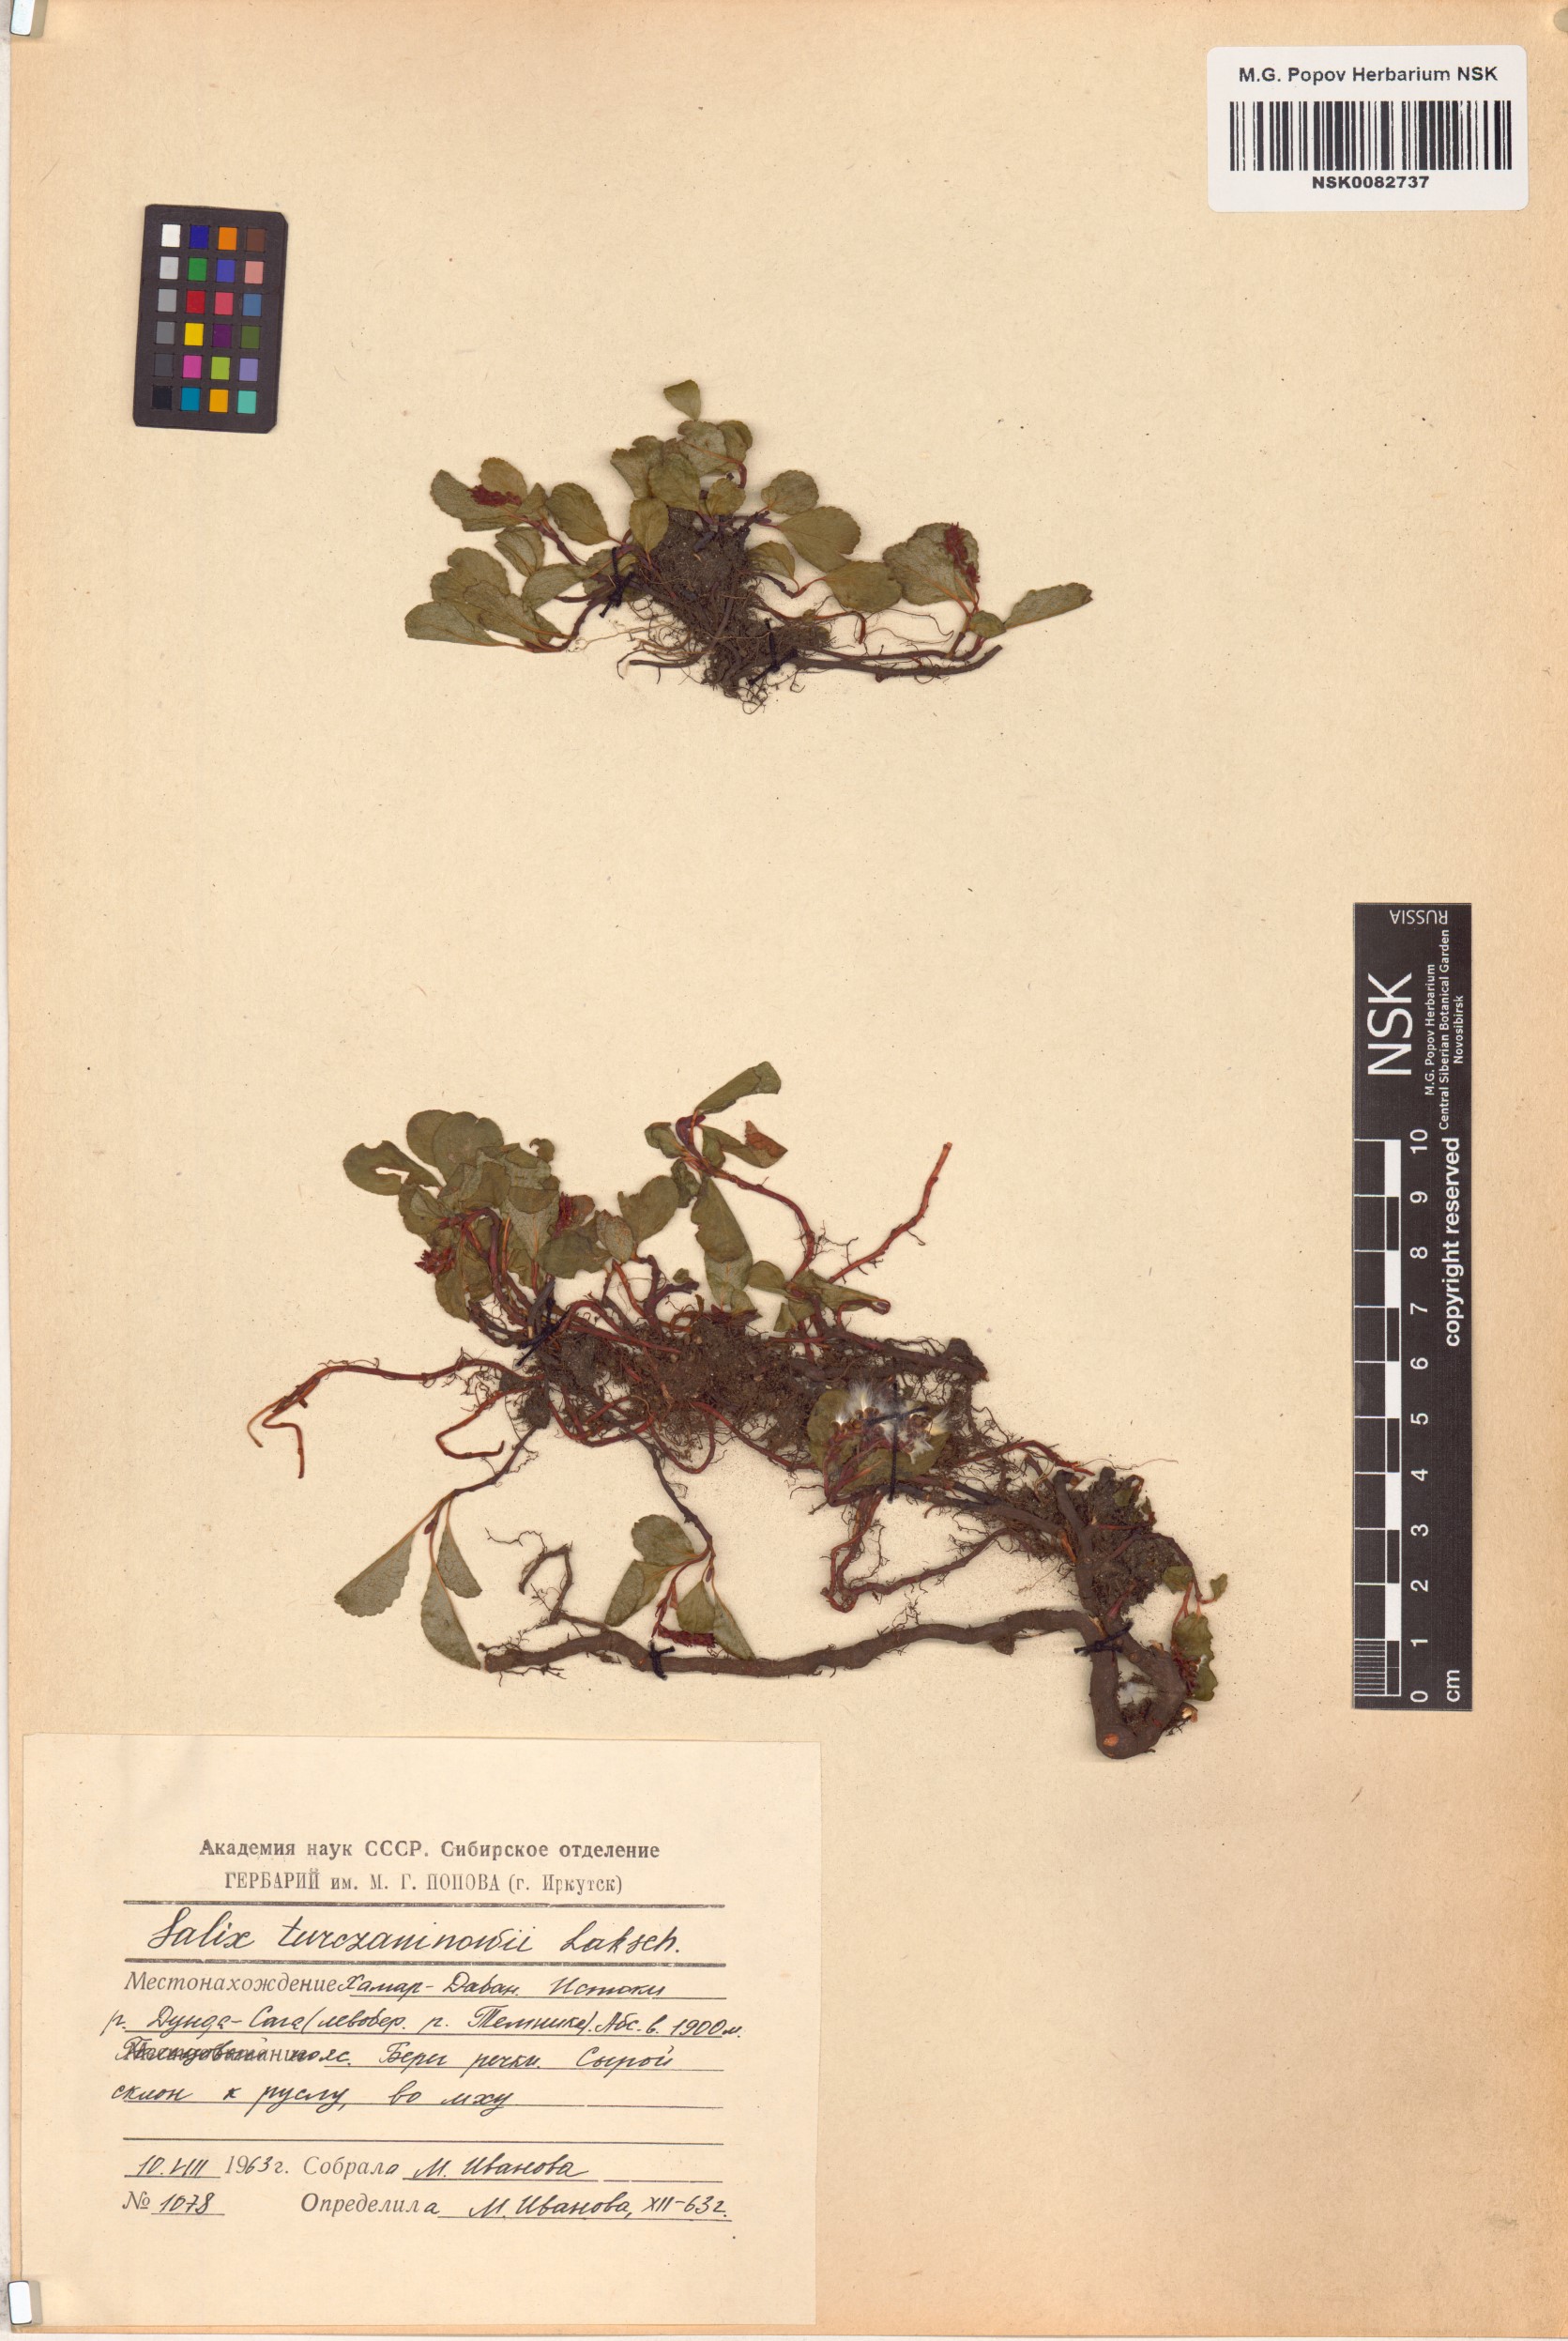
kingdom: Plantae
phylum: Tracheophyta
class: Magnoliopsida
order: Malpighiales
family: Salicaceae
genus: Salix
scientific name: Salix turczaninowii
